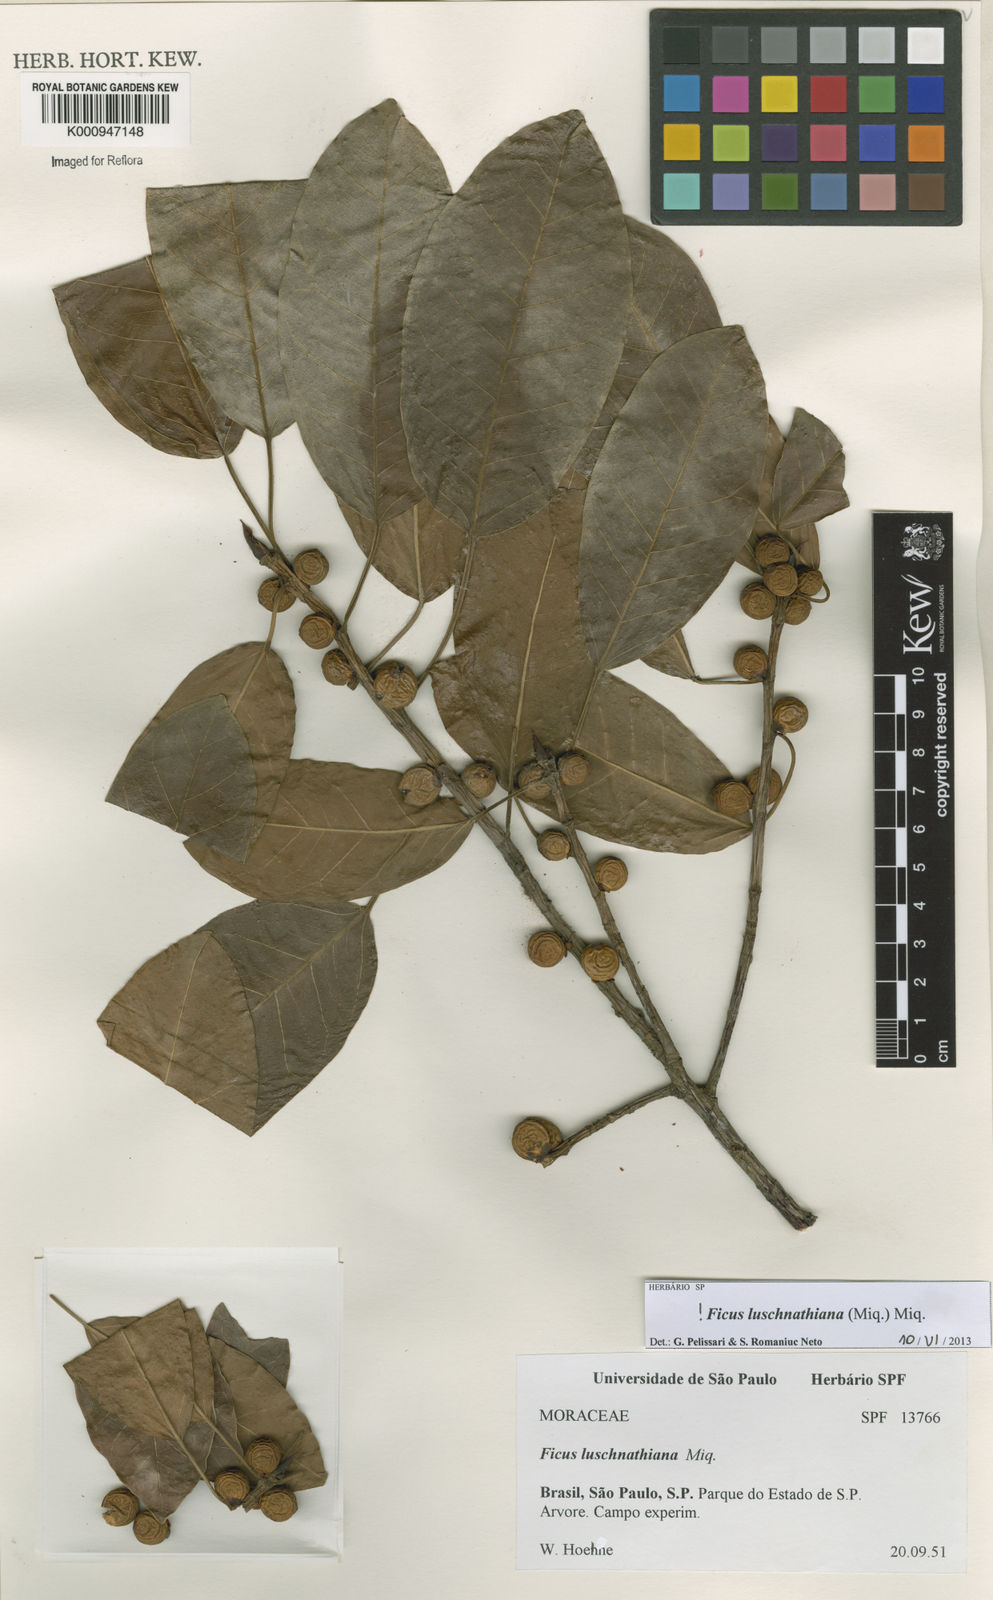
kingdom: Plantae
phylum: Tracheophyta
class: Magnoliopsida
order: Rosales
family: Moraceae
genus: Ficus
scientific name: Ficus luschnathiana
